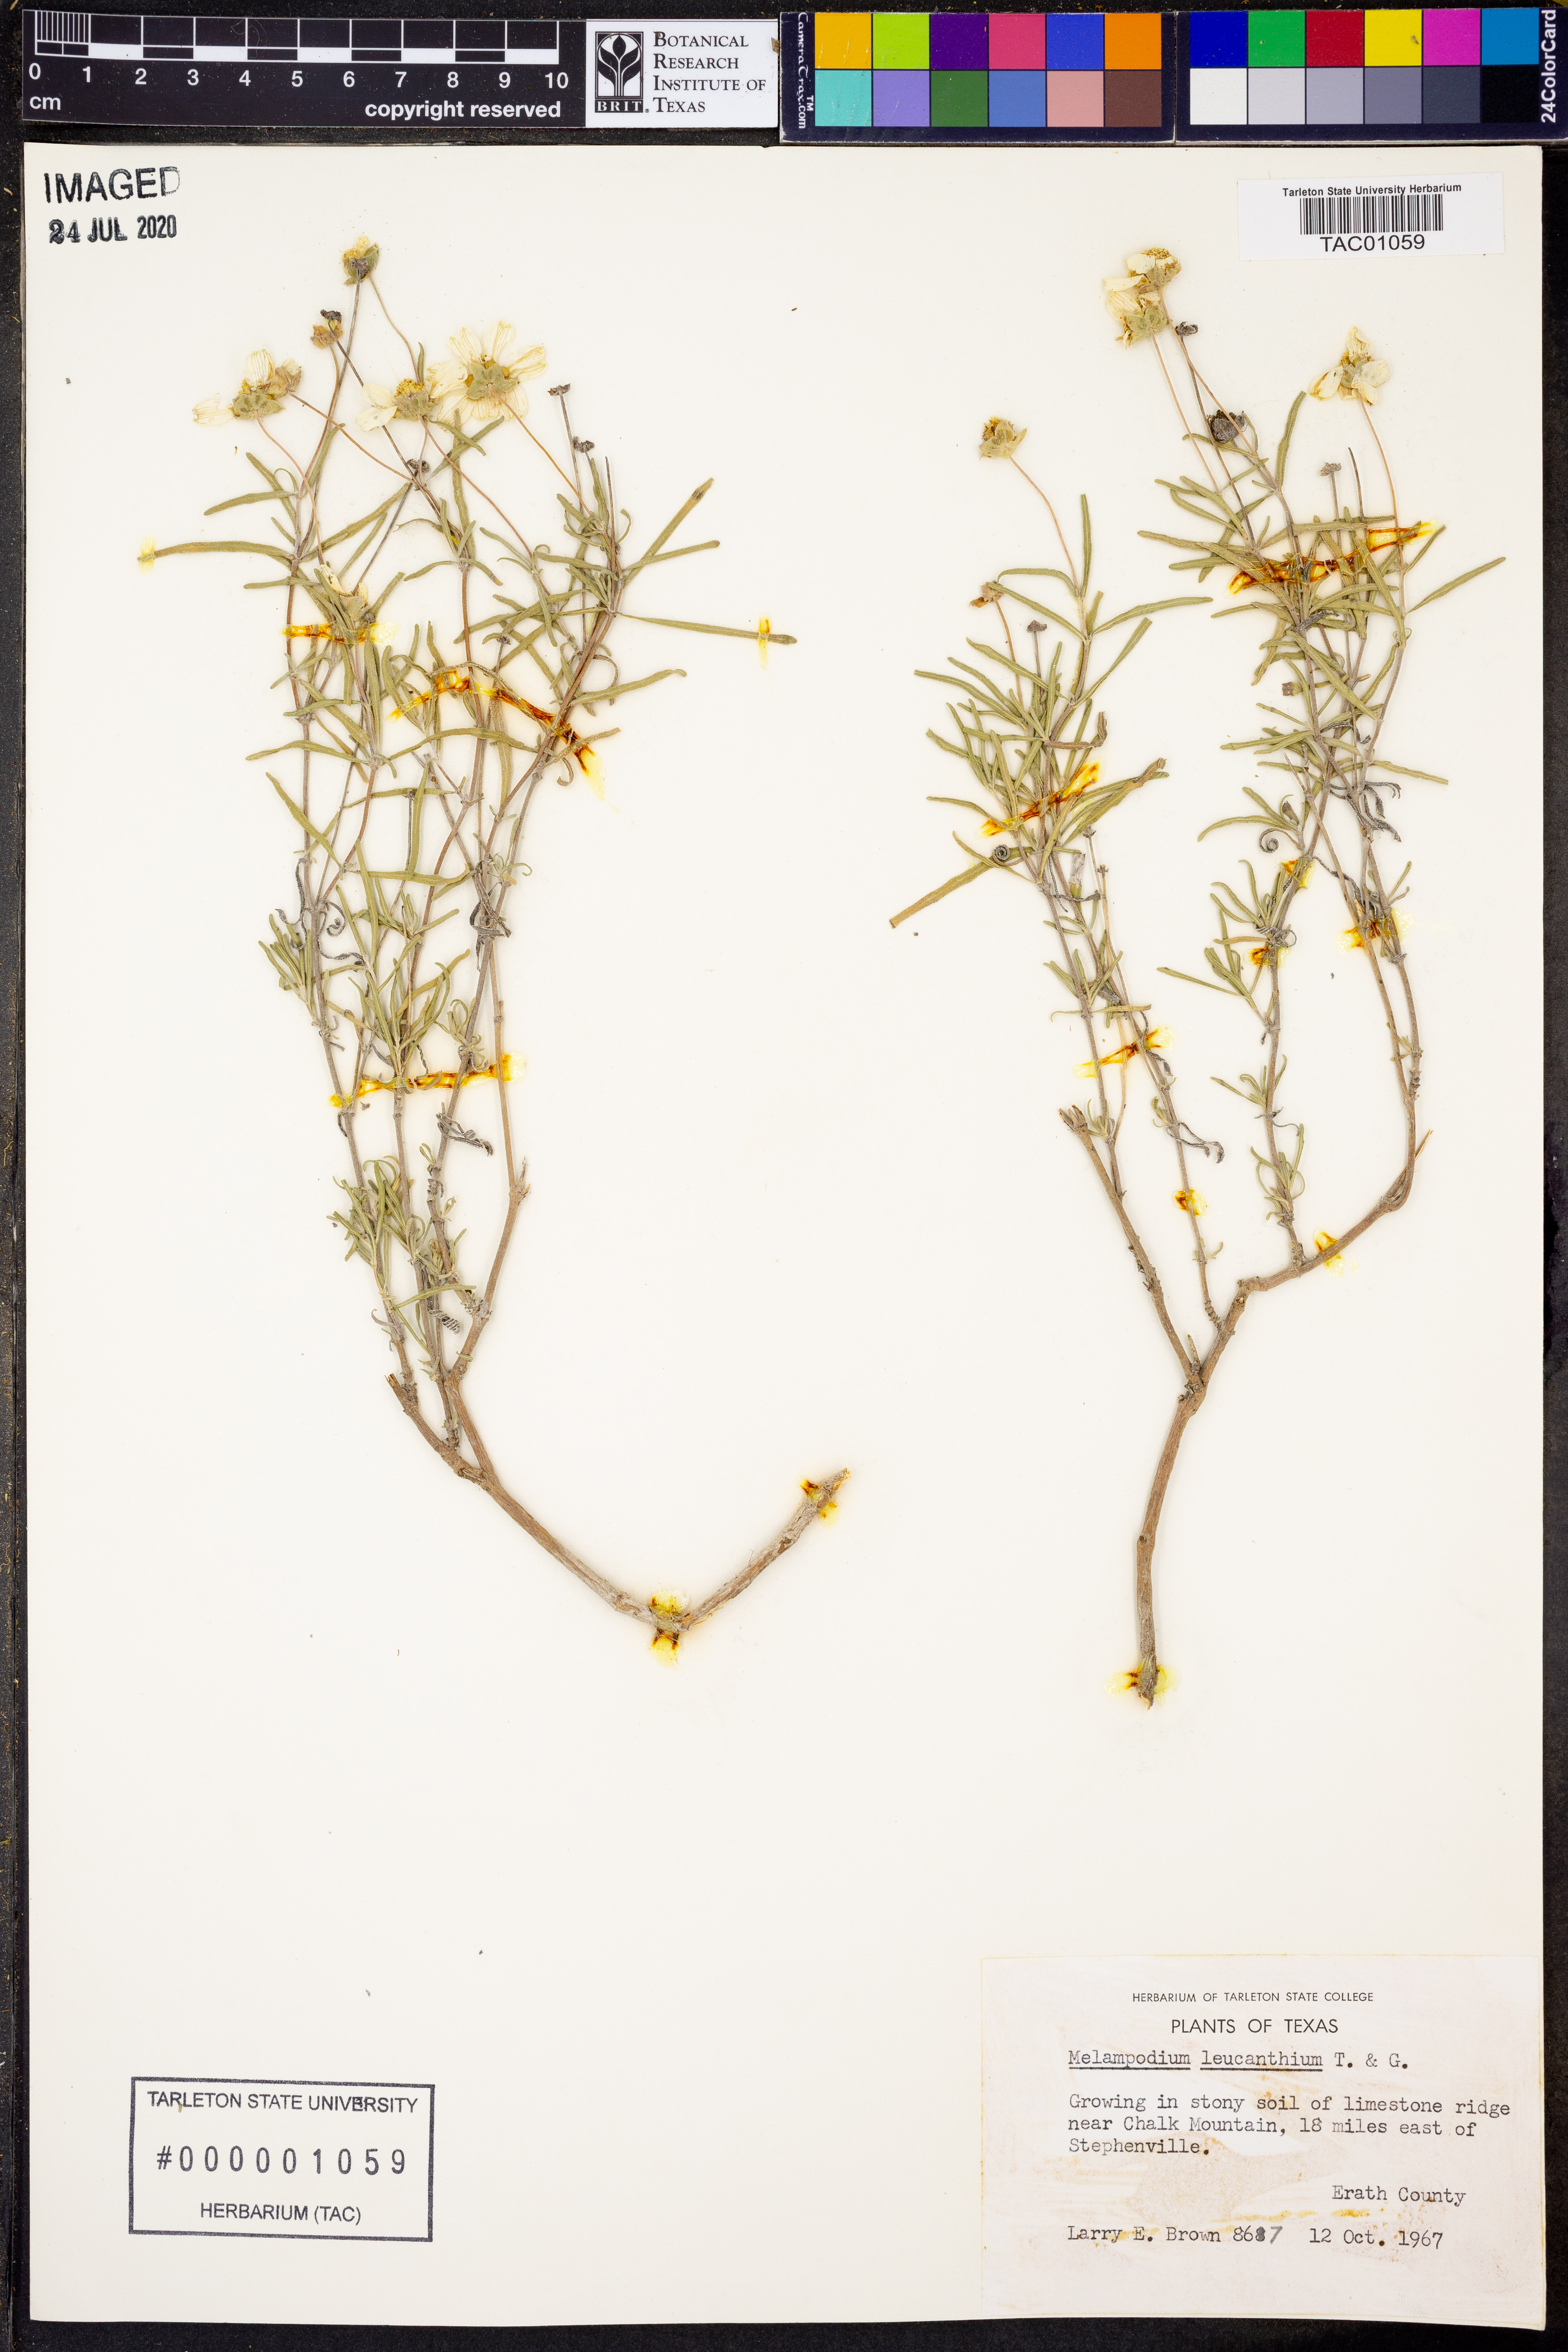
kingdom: Plantae
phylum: Tracheophyta
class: Magnoliopsida
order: Asterales
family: Asteraceae
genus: Melampodium
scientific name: Melampodium leucanthum
